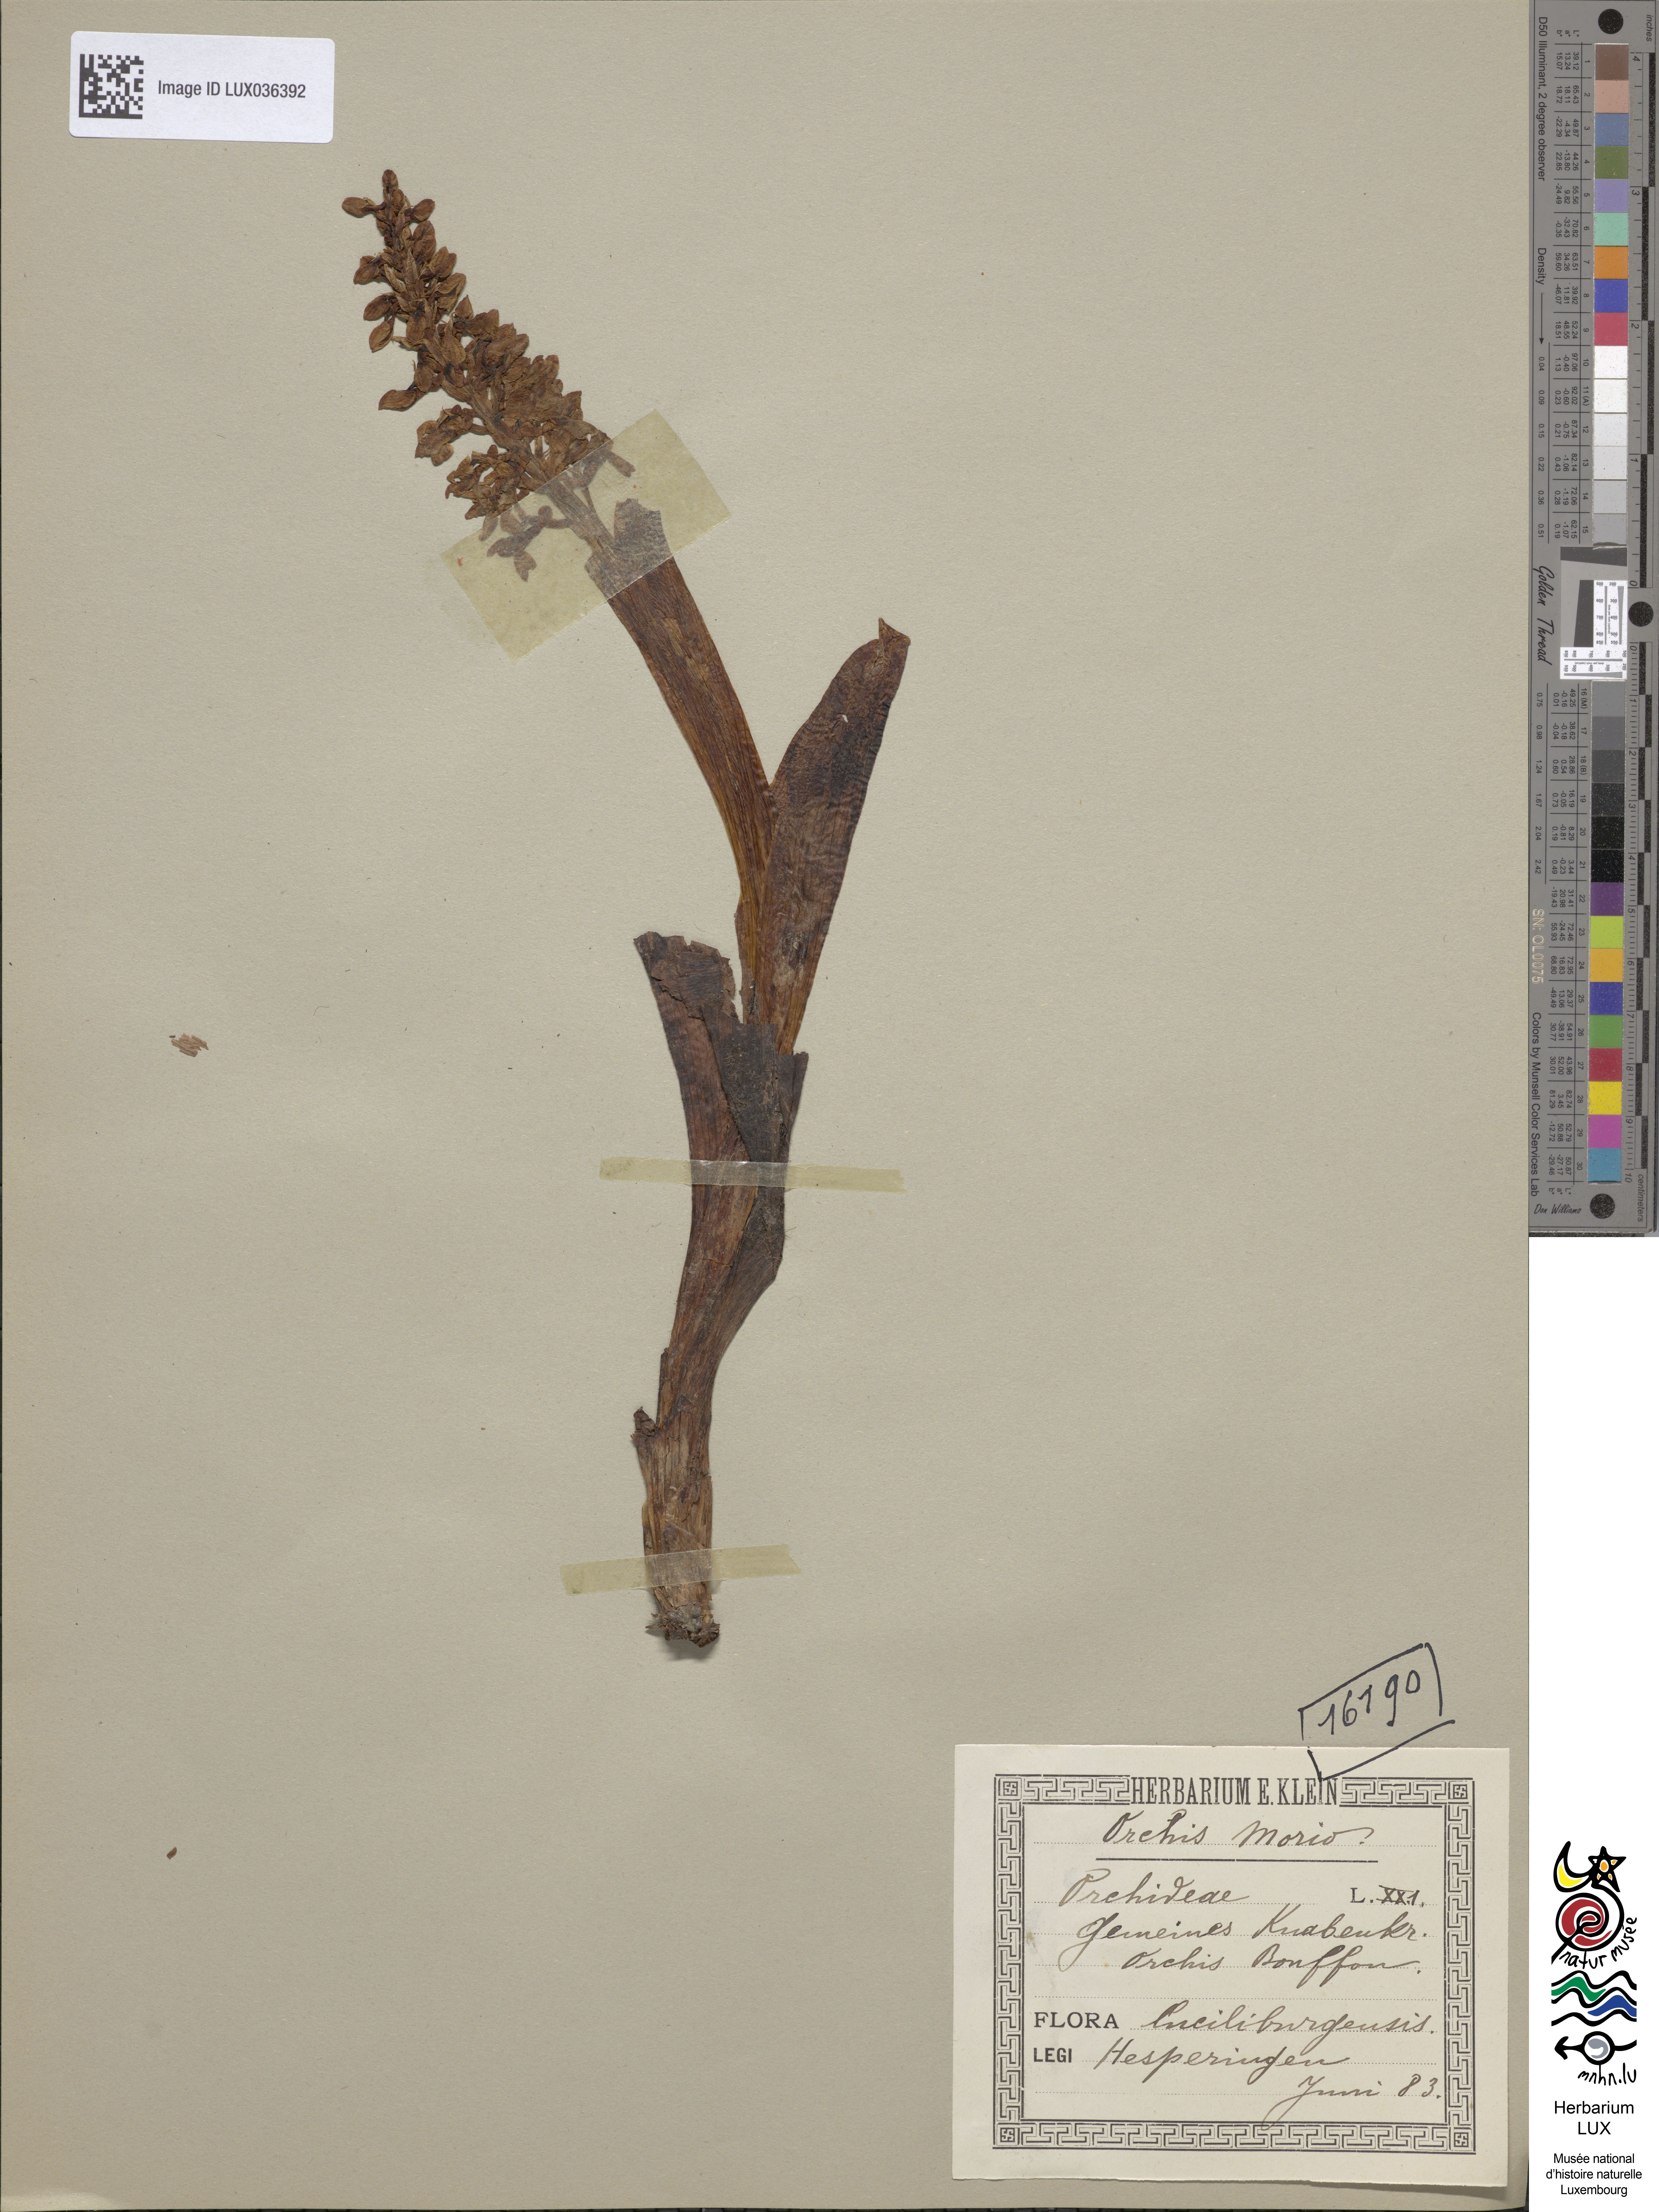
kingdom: Plantae
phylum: Tracheophyta
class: Liliopsida
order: Asparagales
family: Orchidaceae
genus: Anacamptis
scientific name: Anacamptis morio
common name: Green-winged orchid
